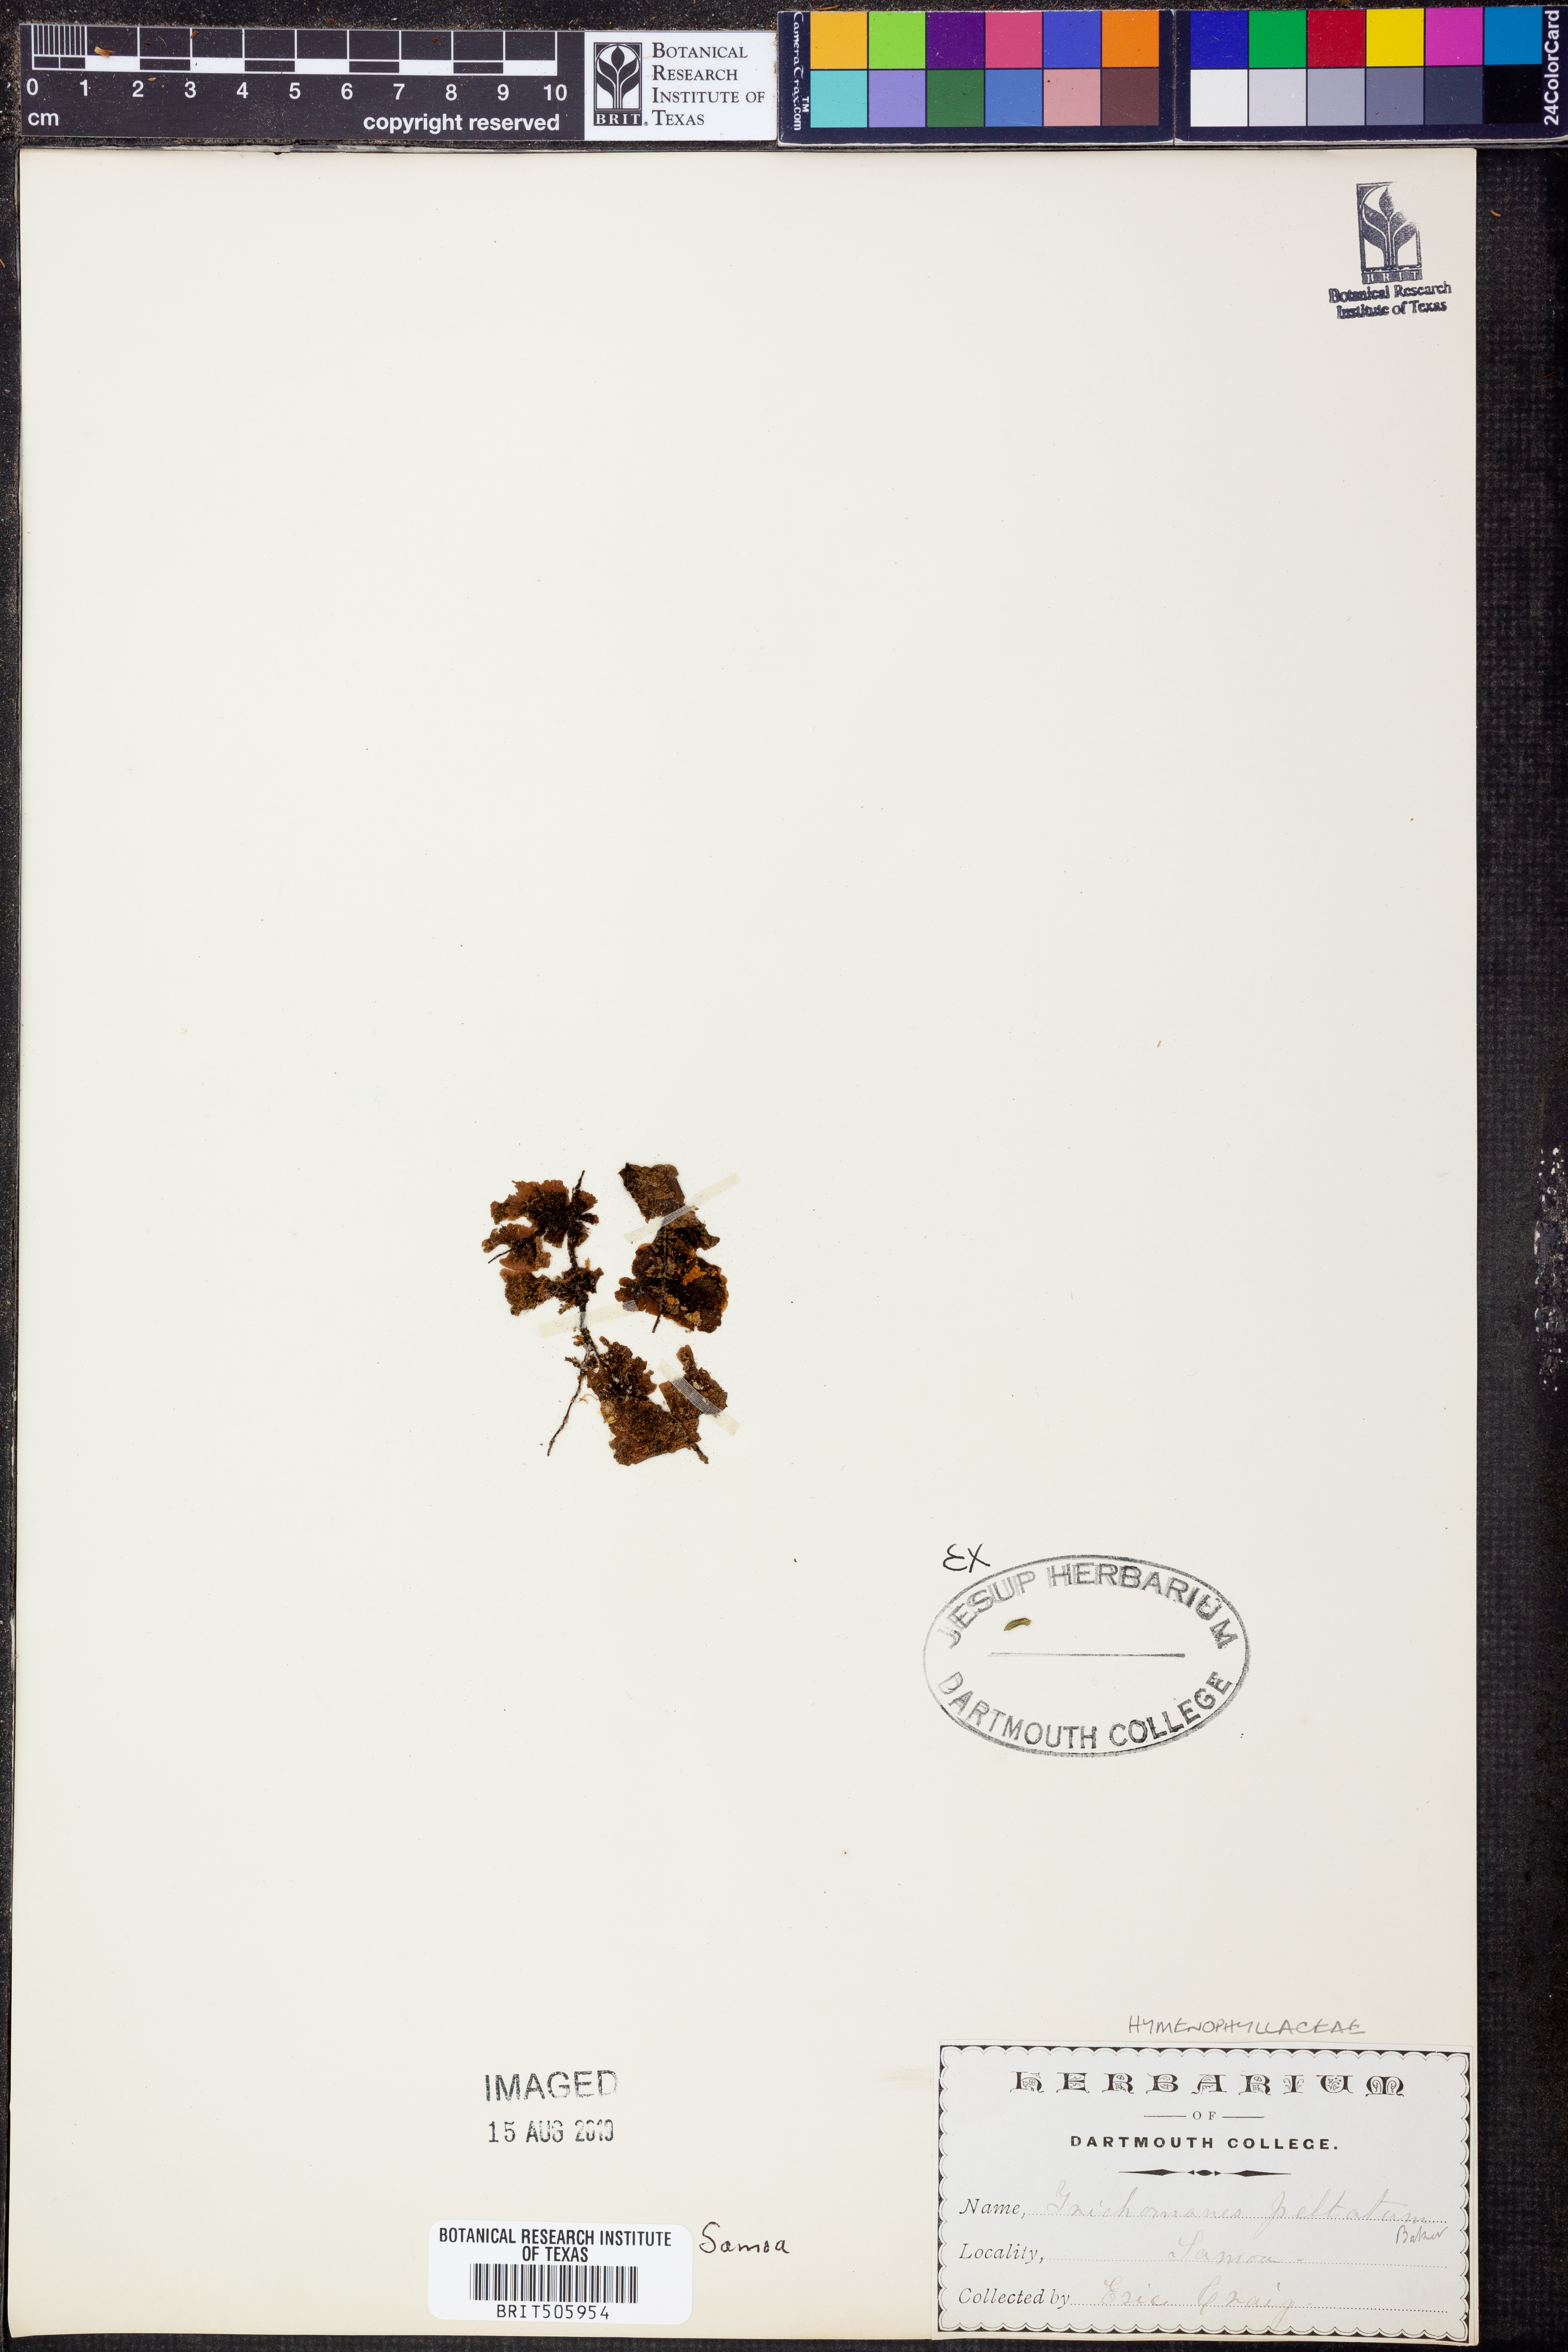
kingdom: Plantae
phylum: Tracheophyta
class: Polypodiopsida
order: Hymenophyllales
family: Hymenophyllaceae
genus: Didymoglossum
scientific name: Didymoglossum tahitense
